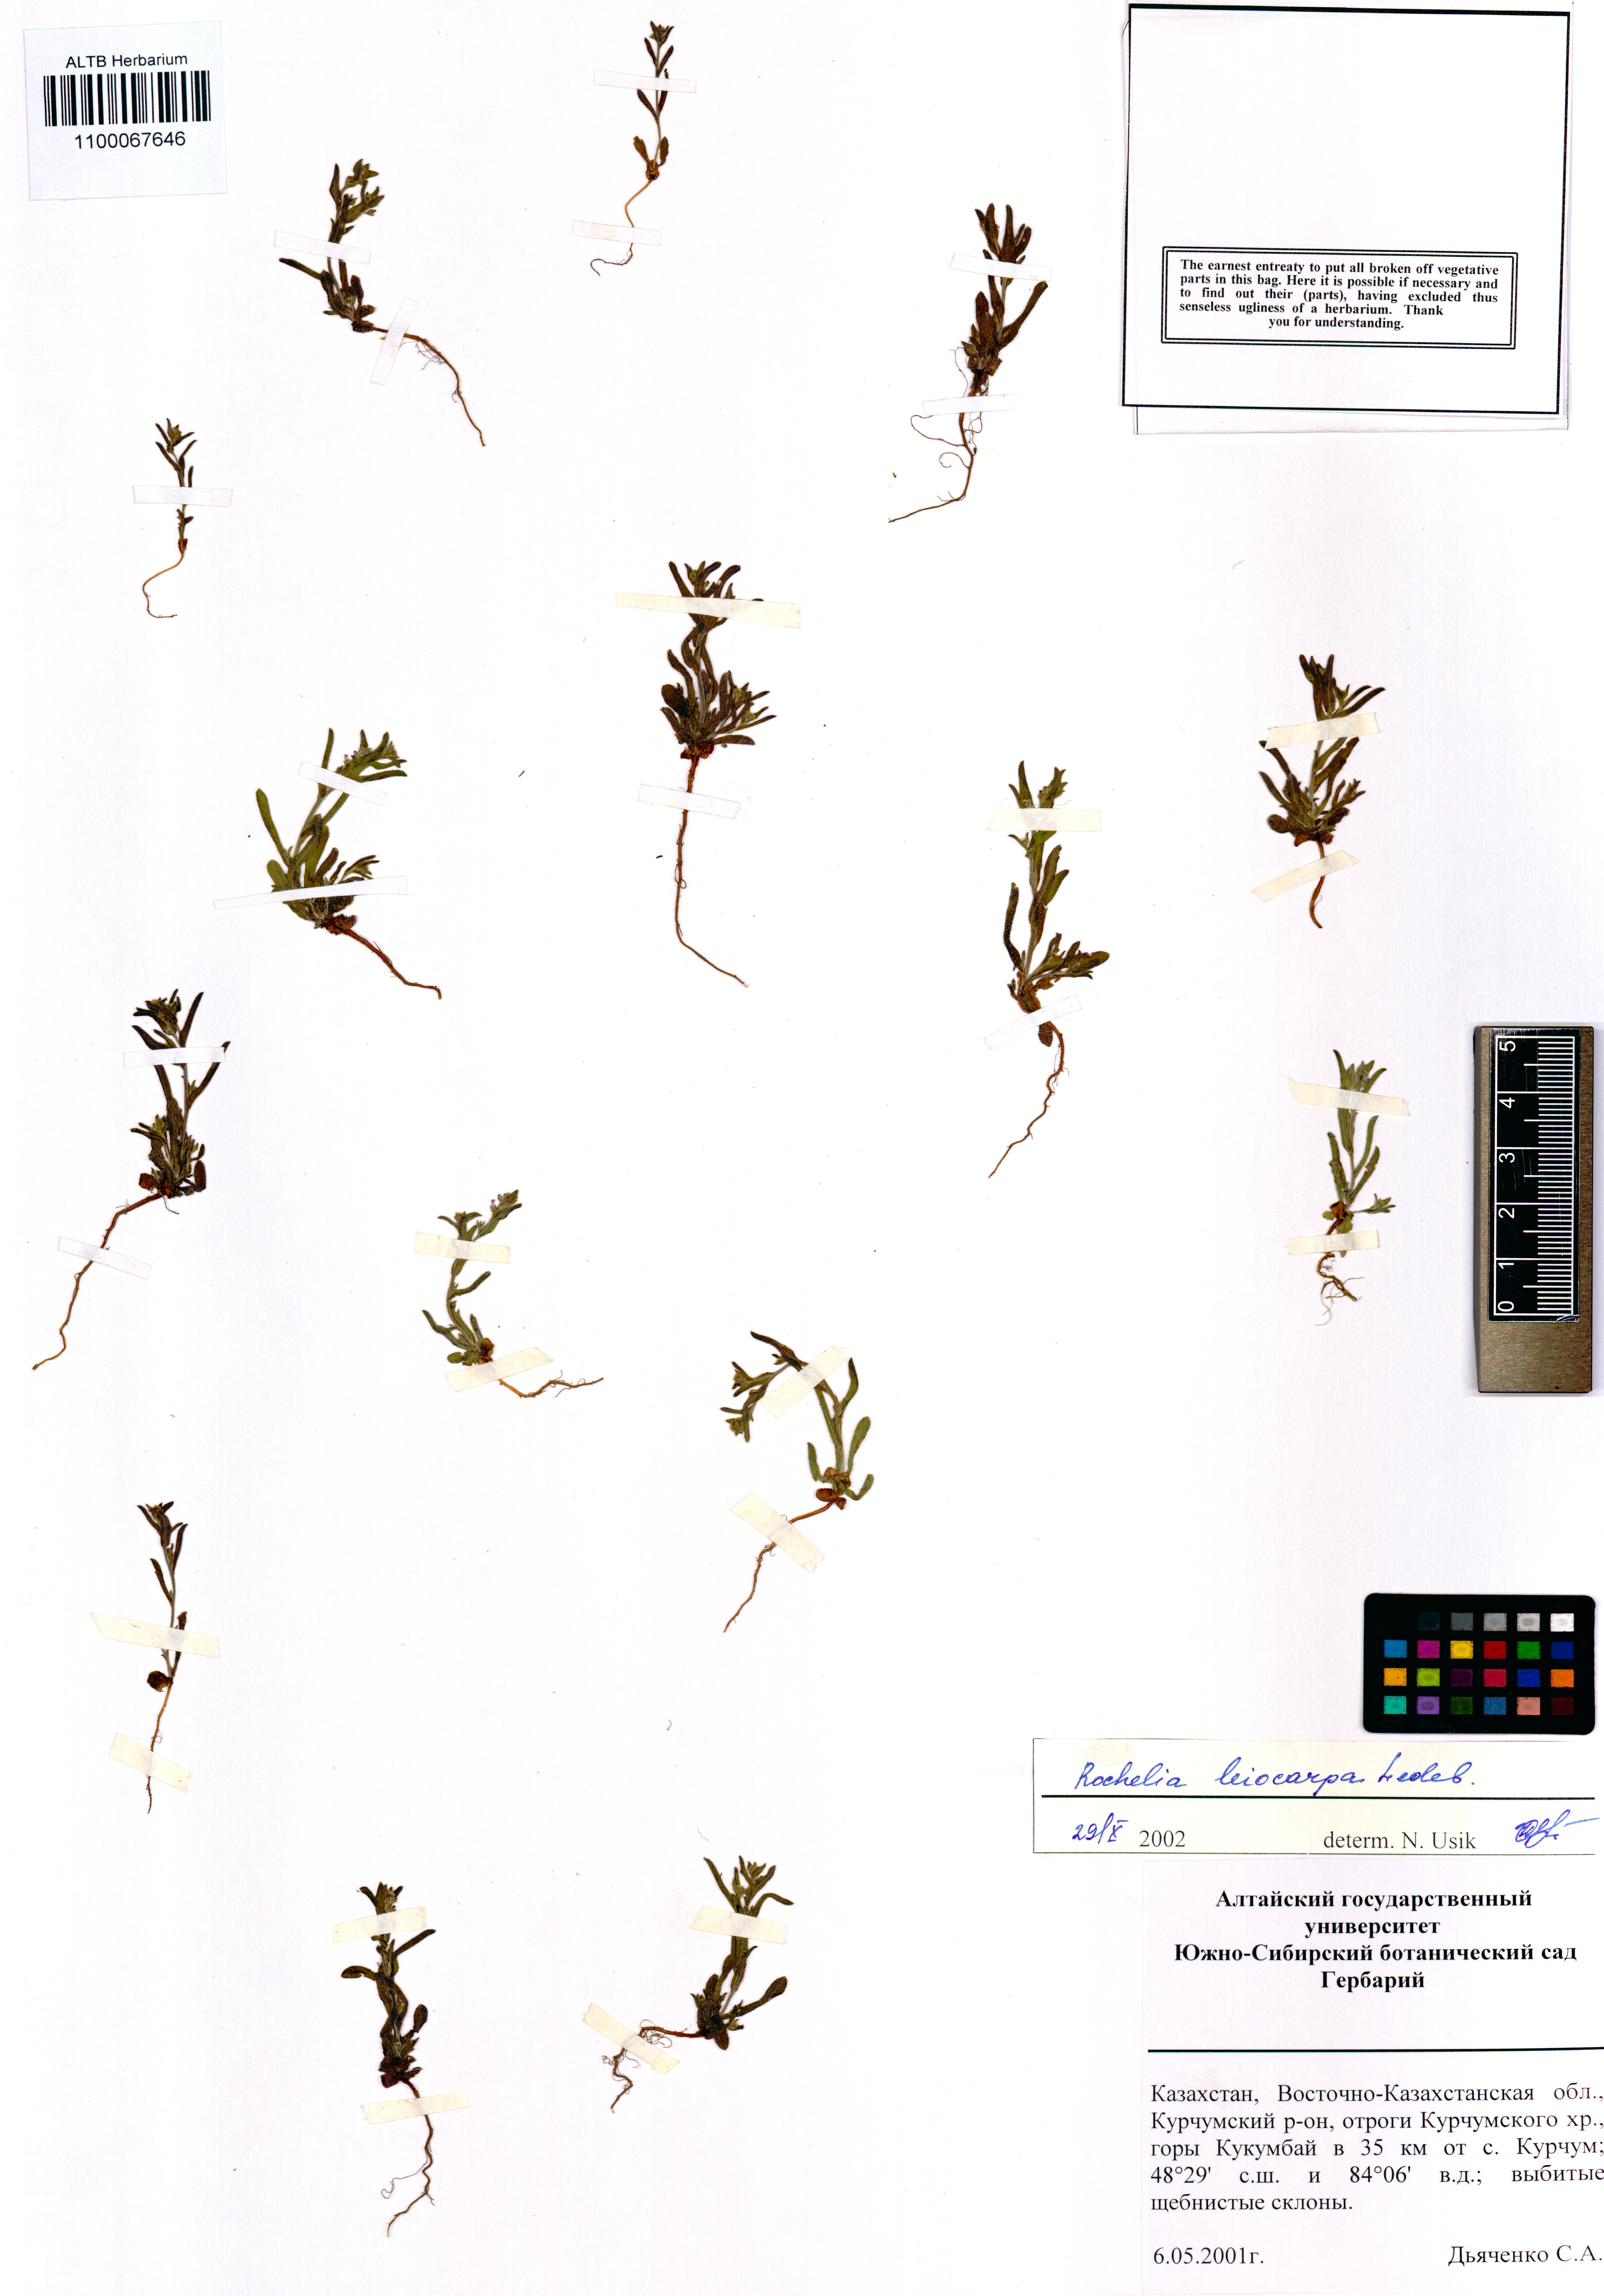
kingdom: Plantae
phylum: Tracheophyta
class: Magnoliopsida
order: Boraginales
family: Boraginaceae
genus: Rochelia
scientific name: Rochelia leiocarpa
